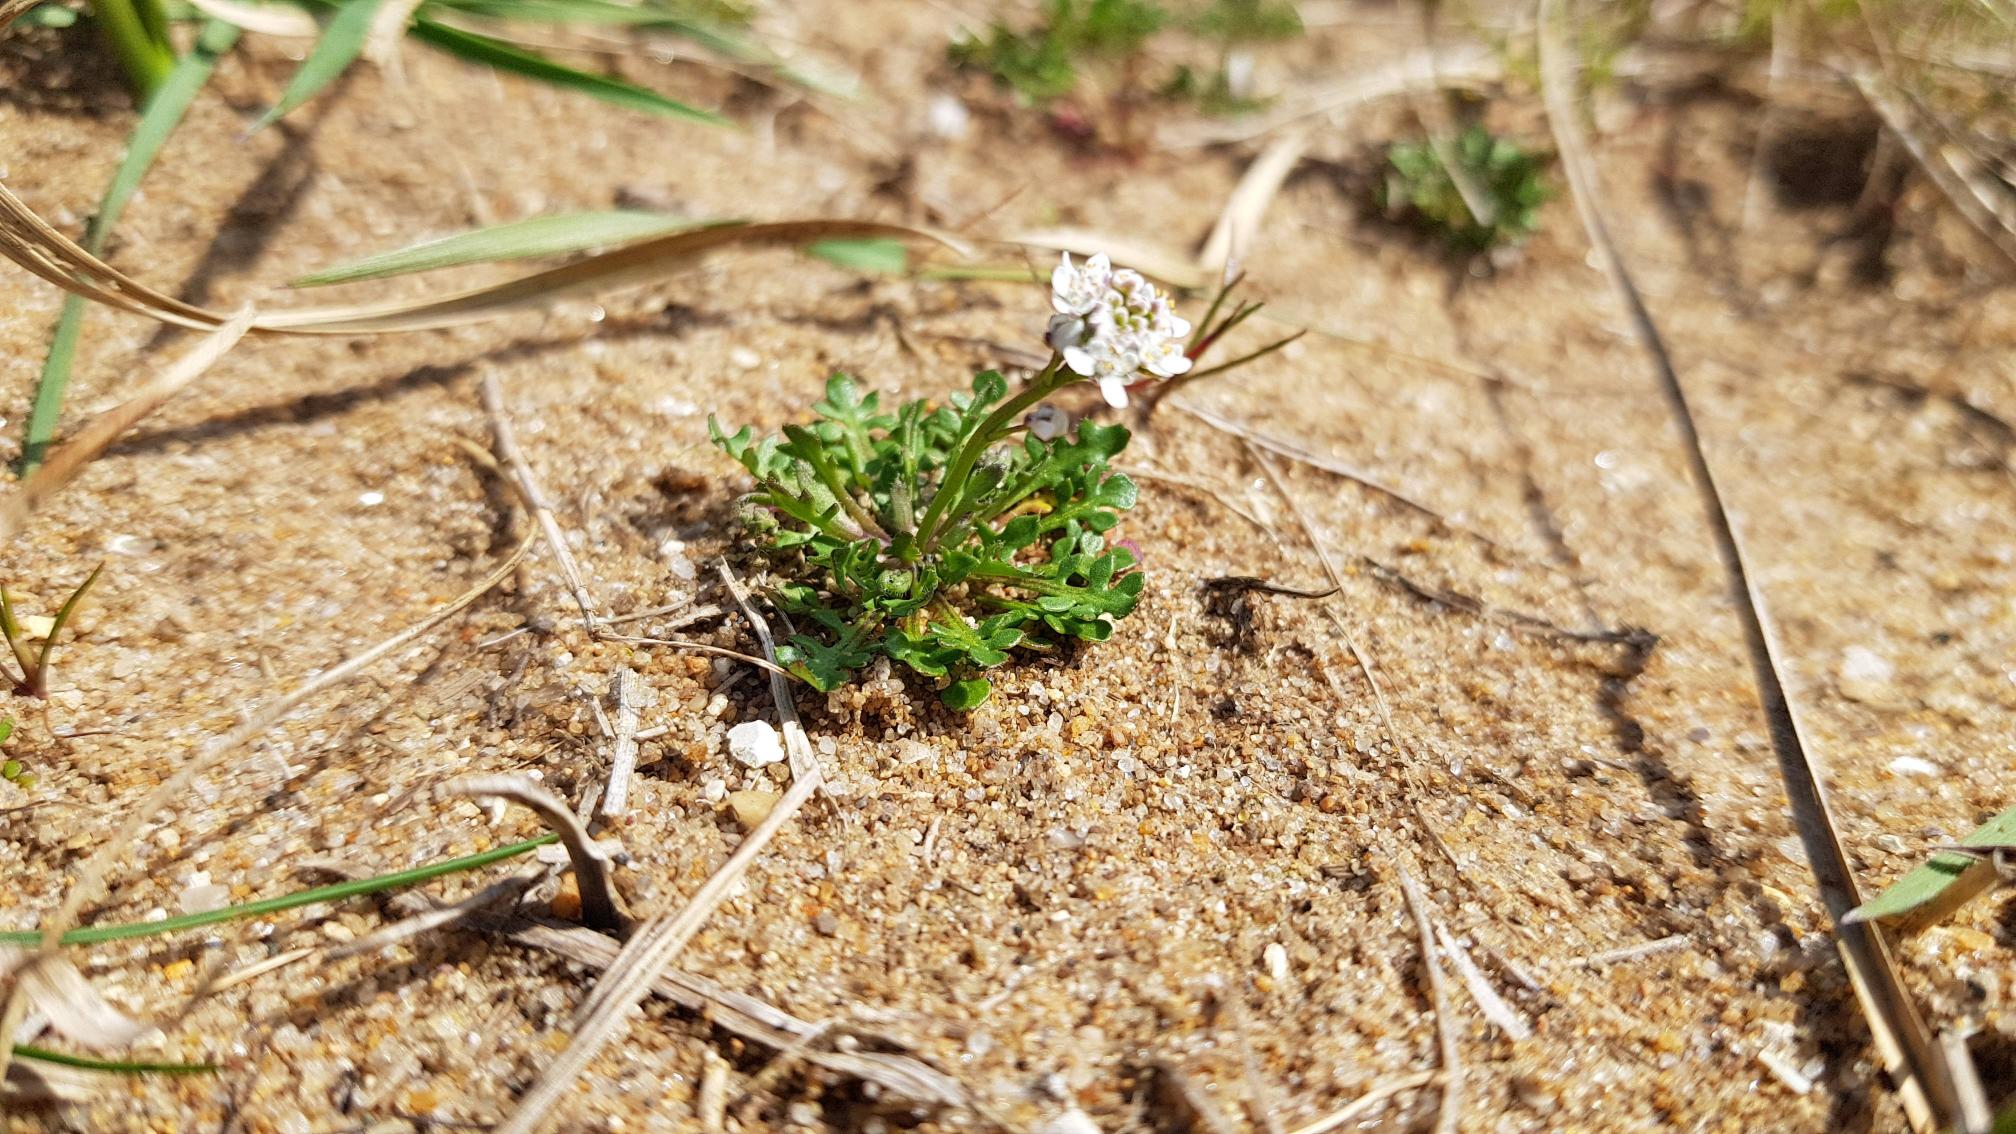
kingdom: Plantae
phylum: Tracheophyta
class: Magnoliopsida
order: Brassicales
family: Brassicaceae
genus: Teesdalia
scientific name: Teesdalia nudicaulis
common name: Flipkrave
